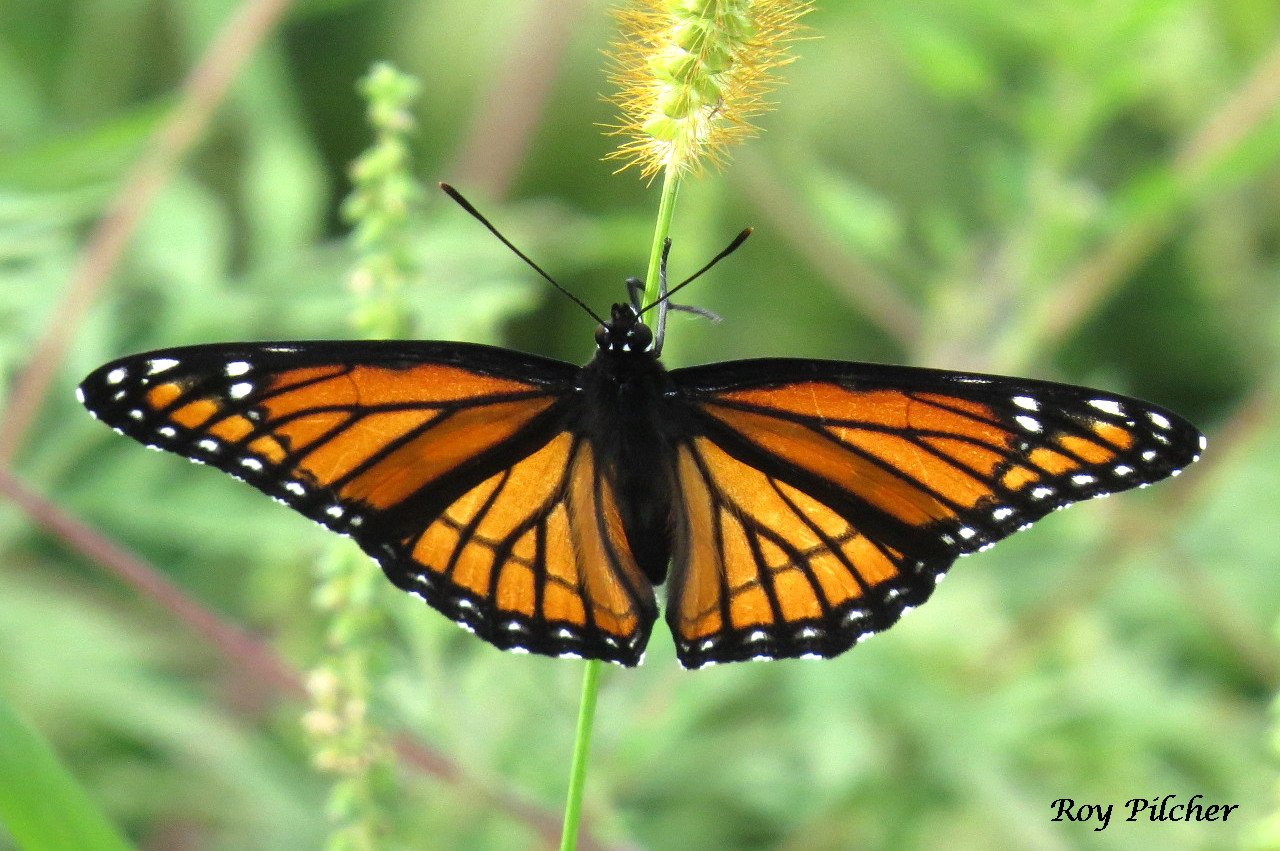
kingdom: Animalia
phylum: Arthropoda
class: Insecta
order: Lepidoptera
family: Nymphalidae
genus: Limenitis
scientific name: Limenitis archippus
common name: Viceroy
